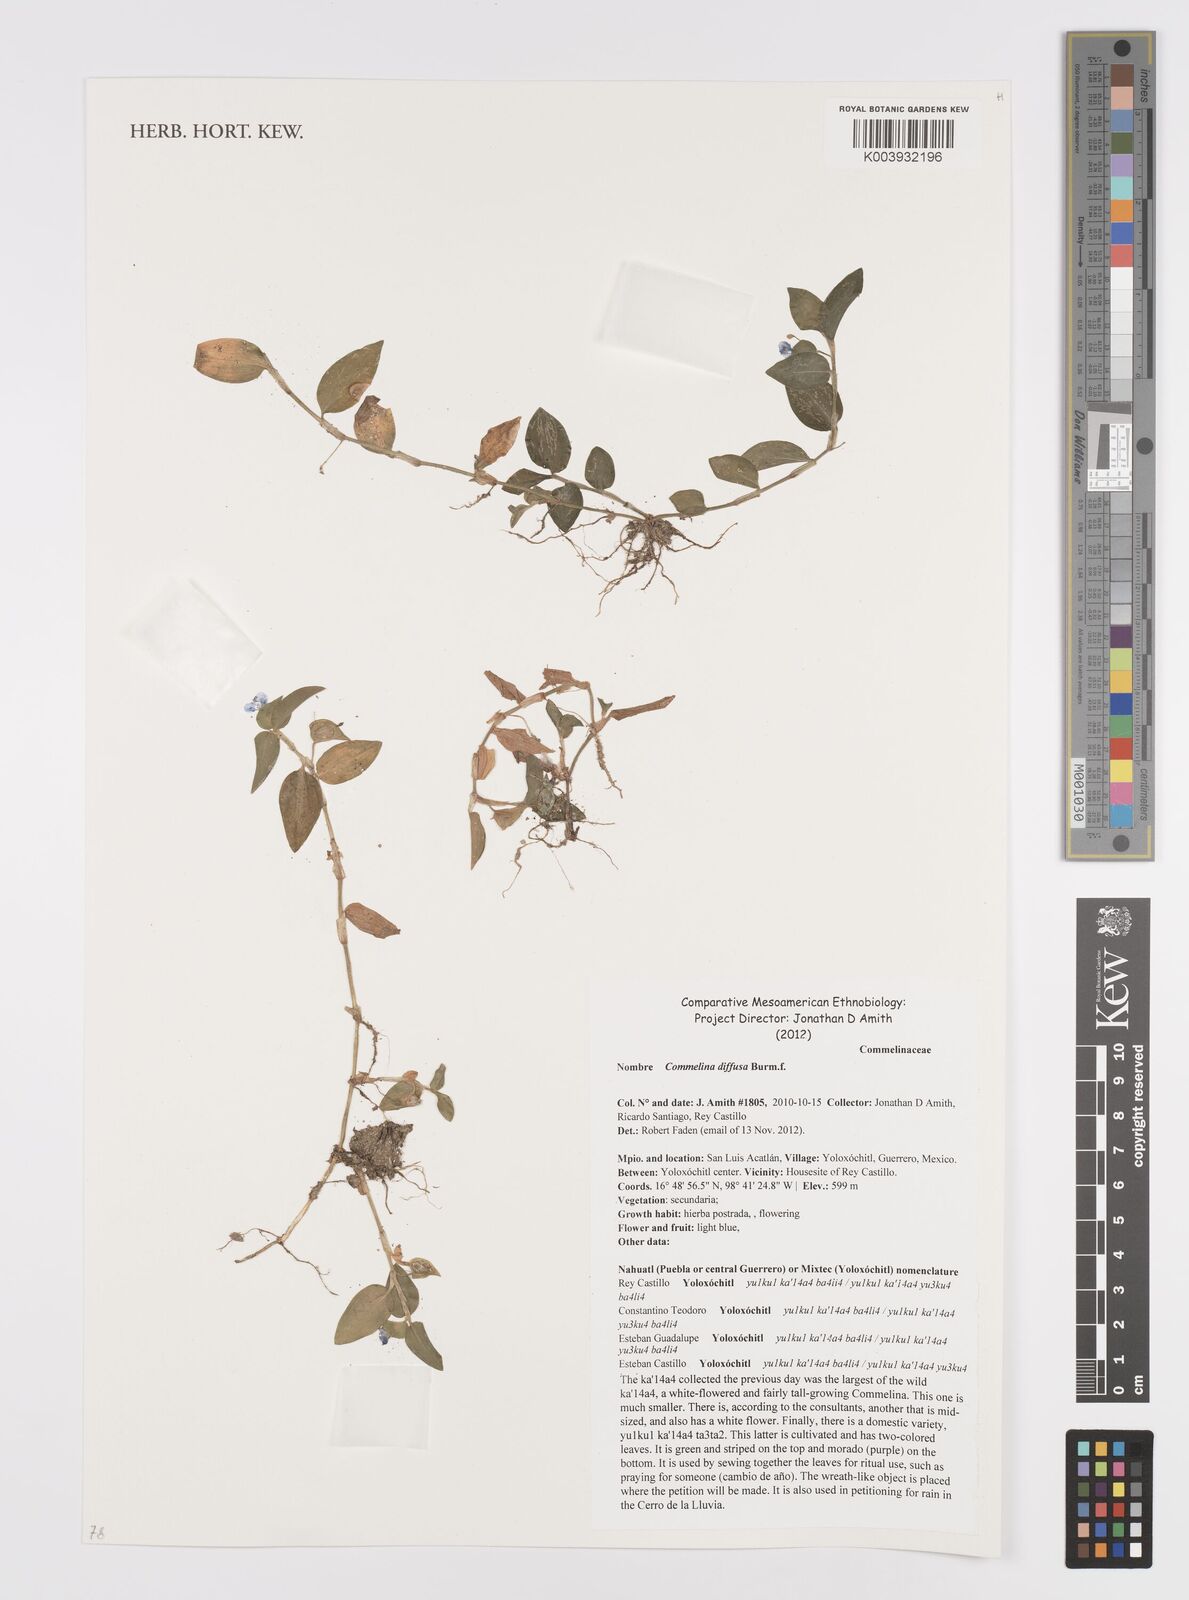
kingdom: Plantae
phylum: Tracheophyta
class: Liliopsida
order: Commelinales
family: Commelinaceae
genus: Commelina
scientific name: Commelina diffusa
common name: Climbing dayflower
